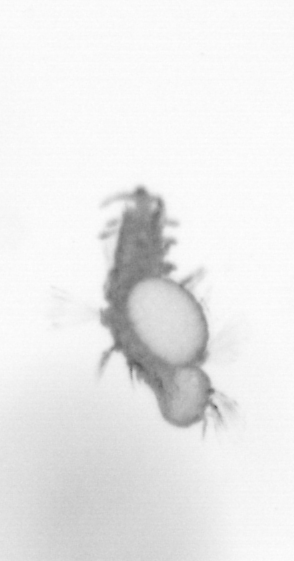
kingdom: Animalia
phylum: Annelida
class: Polychaeta
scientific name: Polychaeta
